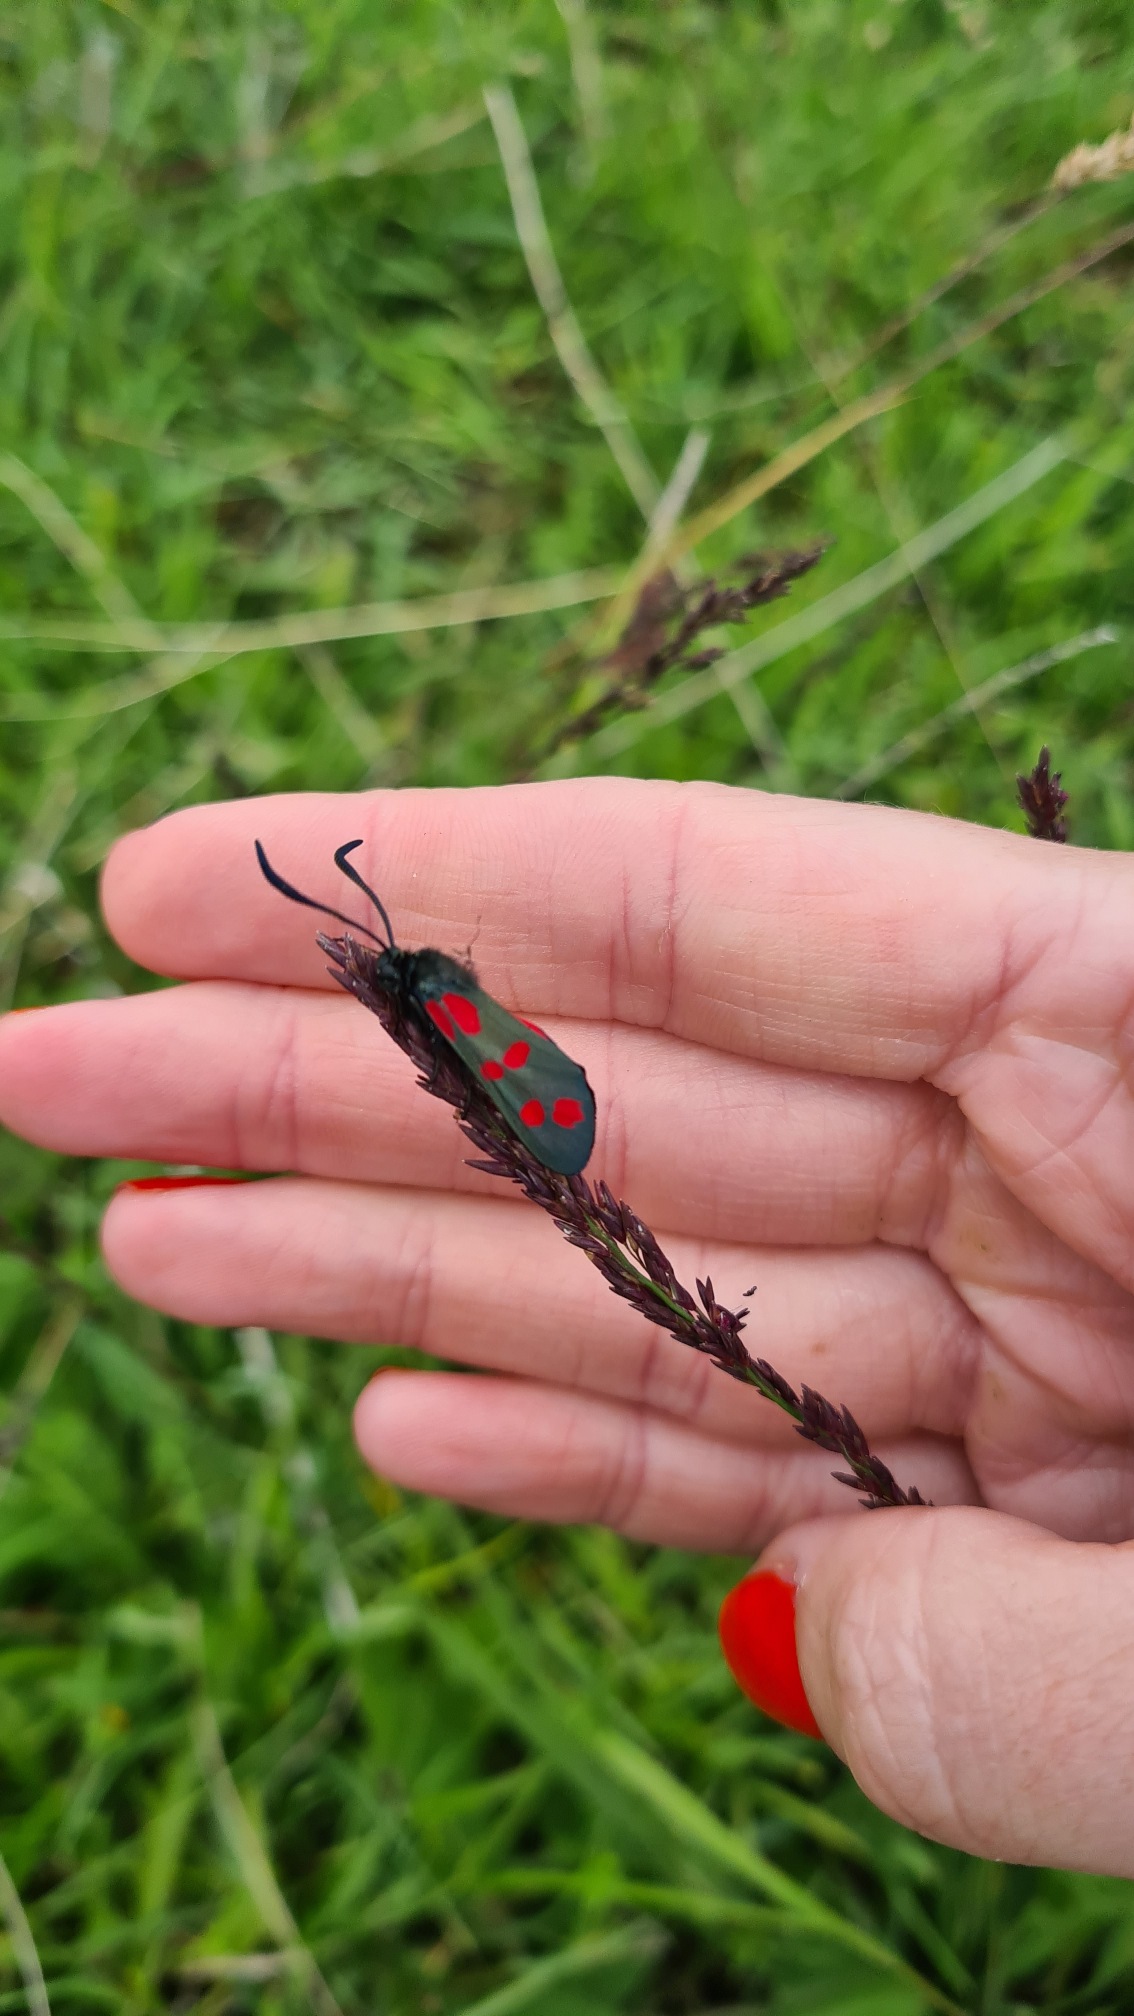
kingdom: Animalia
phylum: Arthropoda
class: Insecta
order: Lepidoptera
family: Zygaenidae
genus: Zygaena
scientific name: Zygaena filipendulae
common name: Seksplettet køllesværmer
